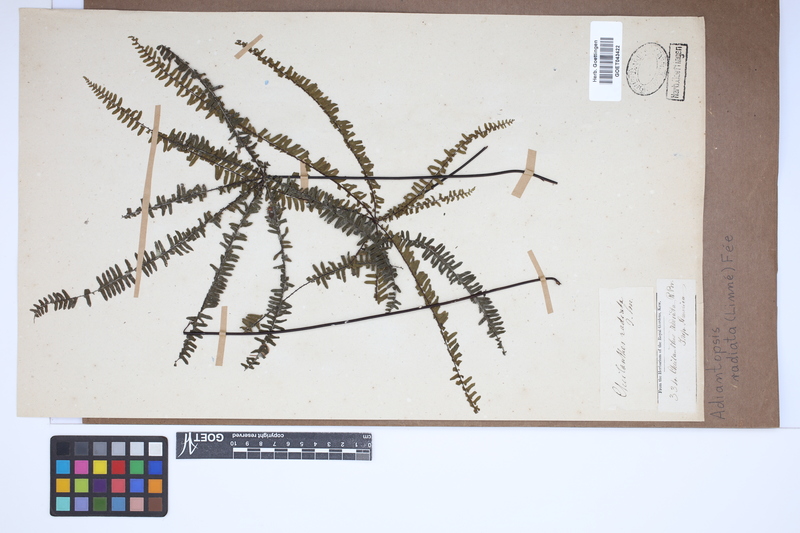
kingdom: Plantae
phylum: Tracheophyta
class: Polypodiopsida
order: Polypodiales
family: Pteridaceae
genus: Adiantopsis
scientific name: Adiantopsis radiata
